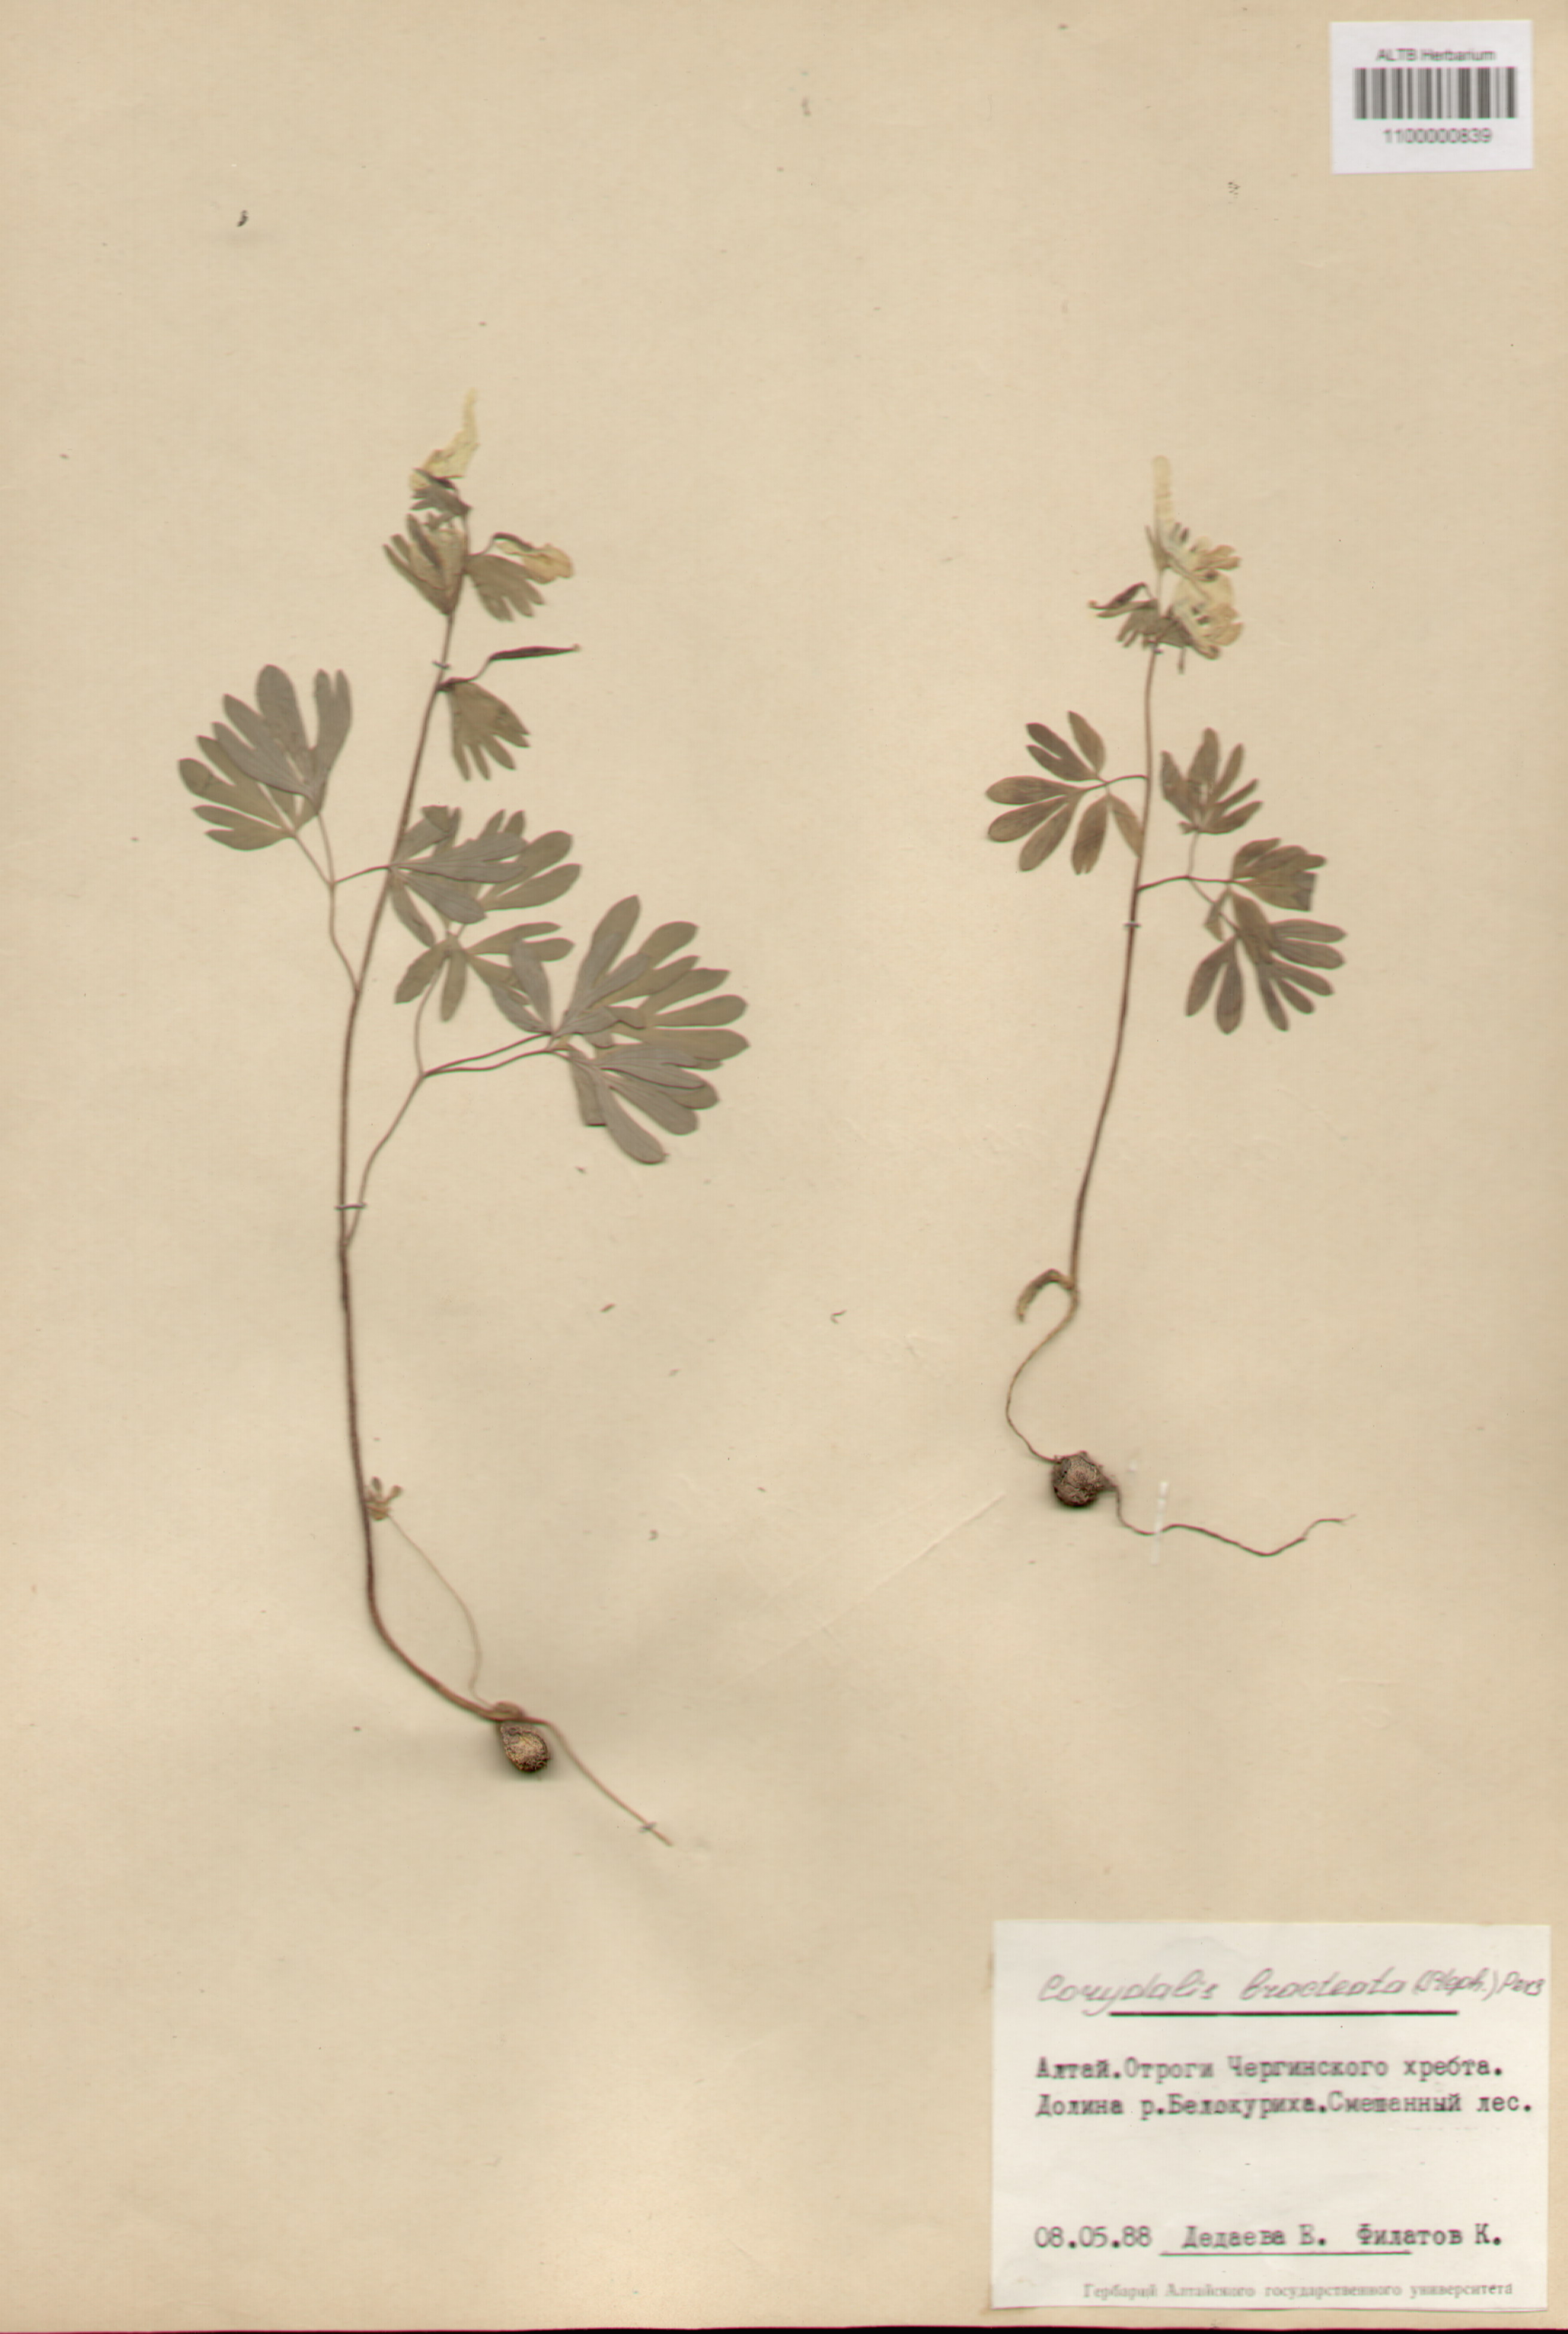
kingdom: Plantae
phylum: Tracheophyta
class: Magnoliopsida
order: Ranunculales
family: Papaveraceae
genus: Corydalis
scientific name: Corydalis bracteata
